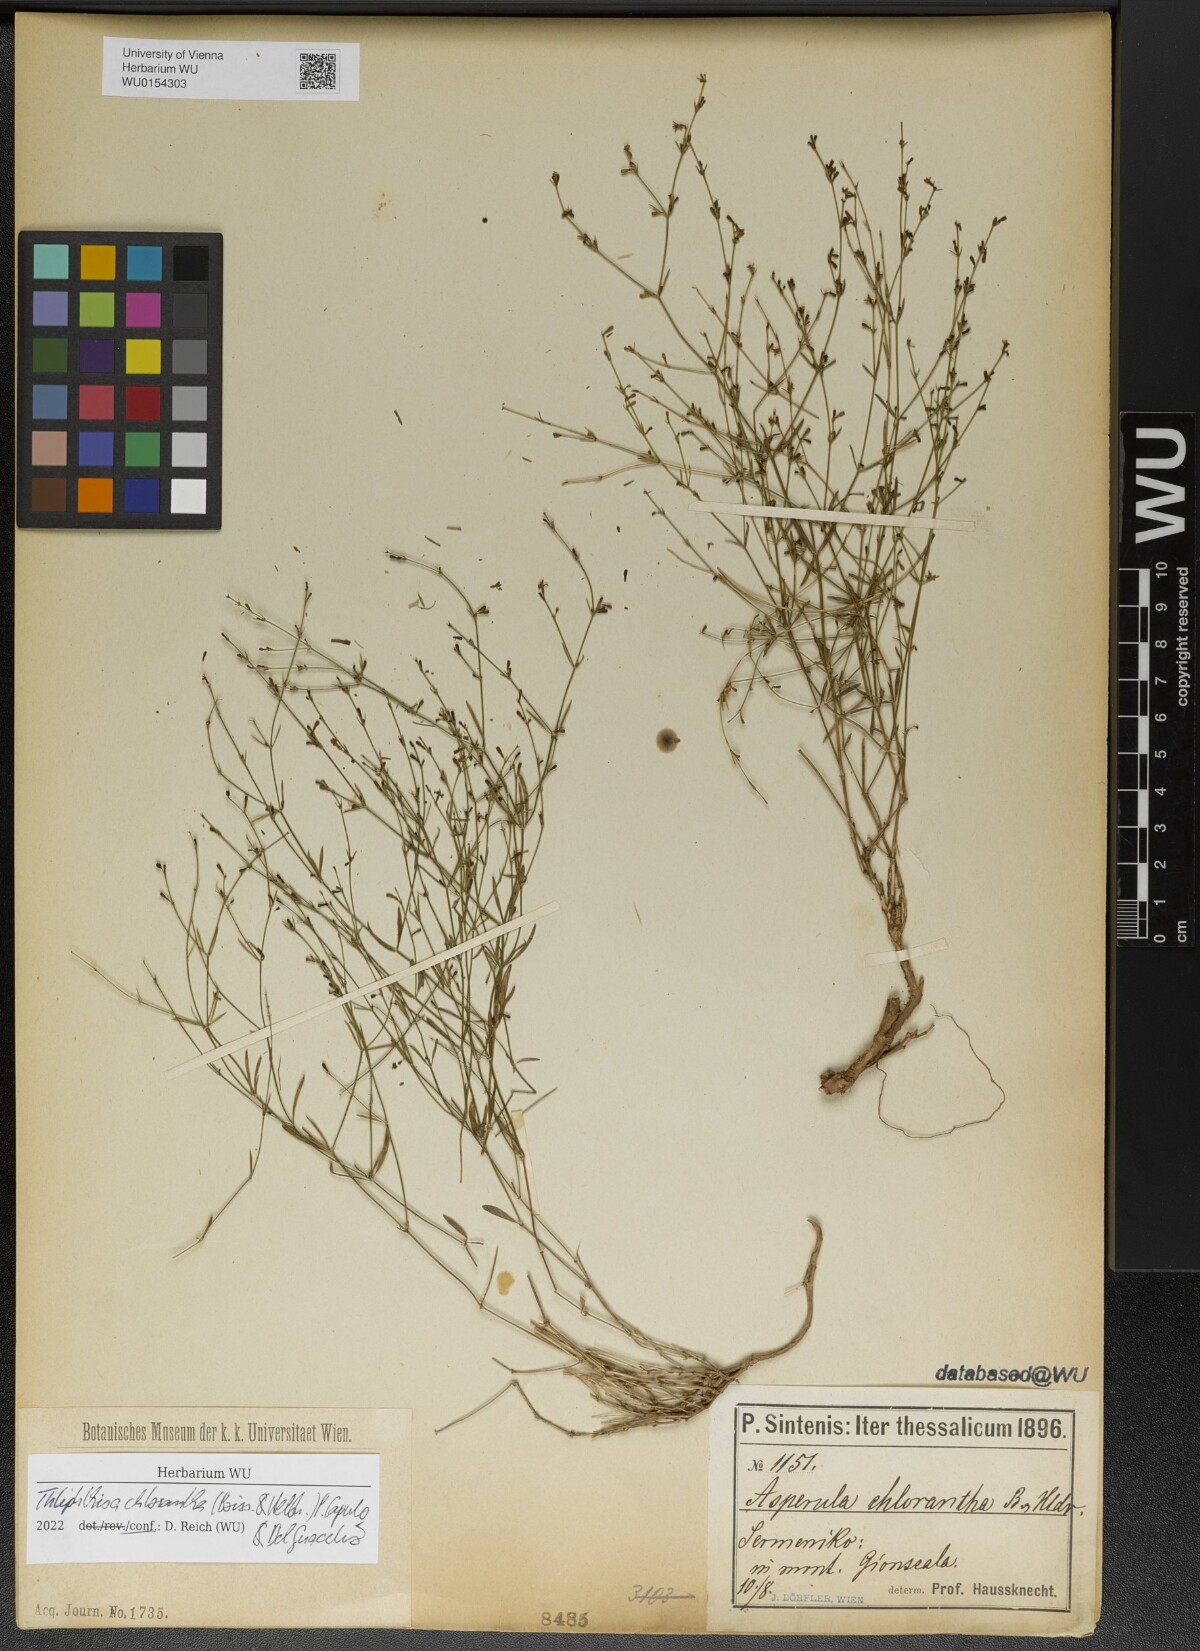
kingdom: Plantae
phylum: Tracheophyta
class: Magnoliopsida
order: Gentianales
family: Rubiaceae
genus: Thliphthisa
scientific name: Thliphthisa chlorantha
